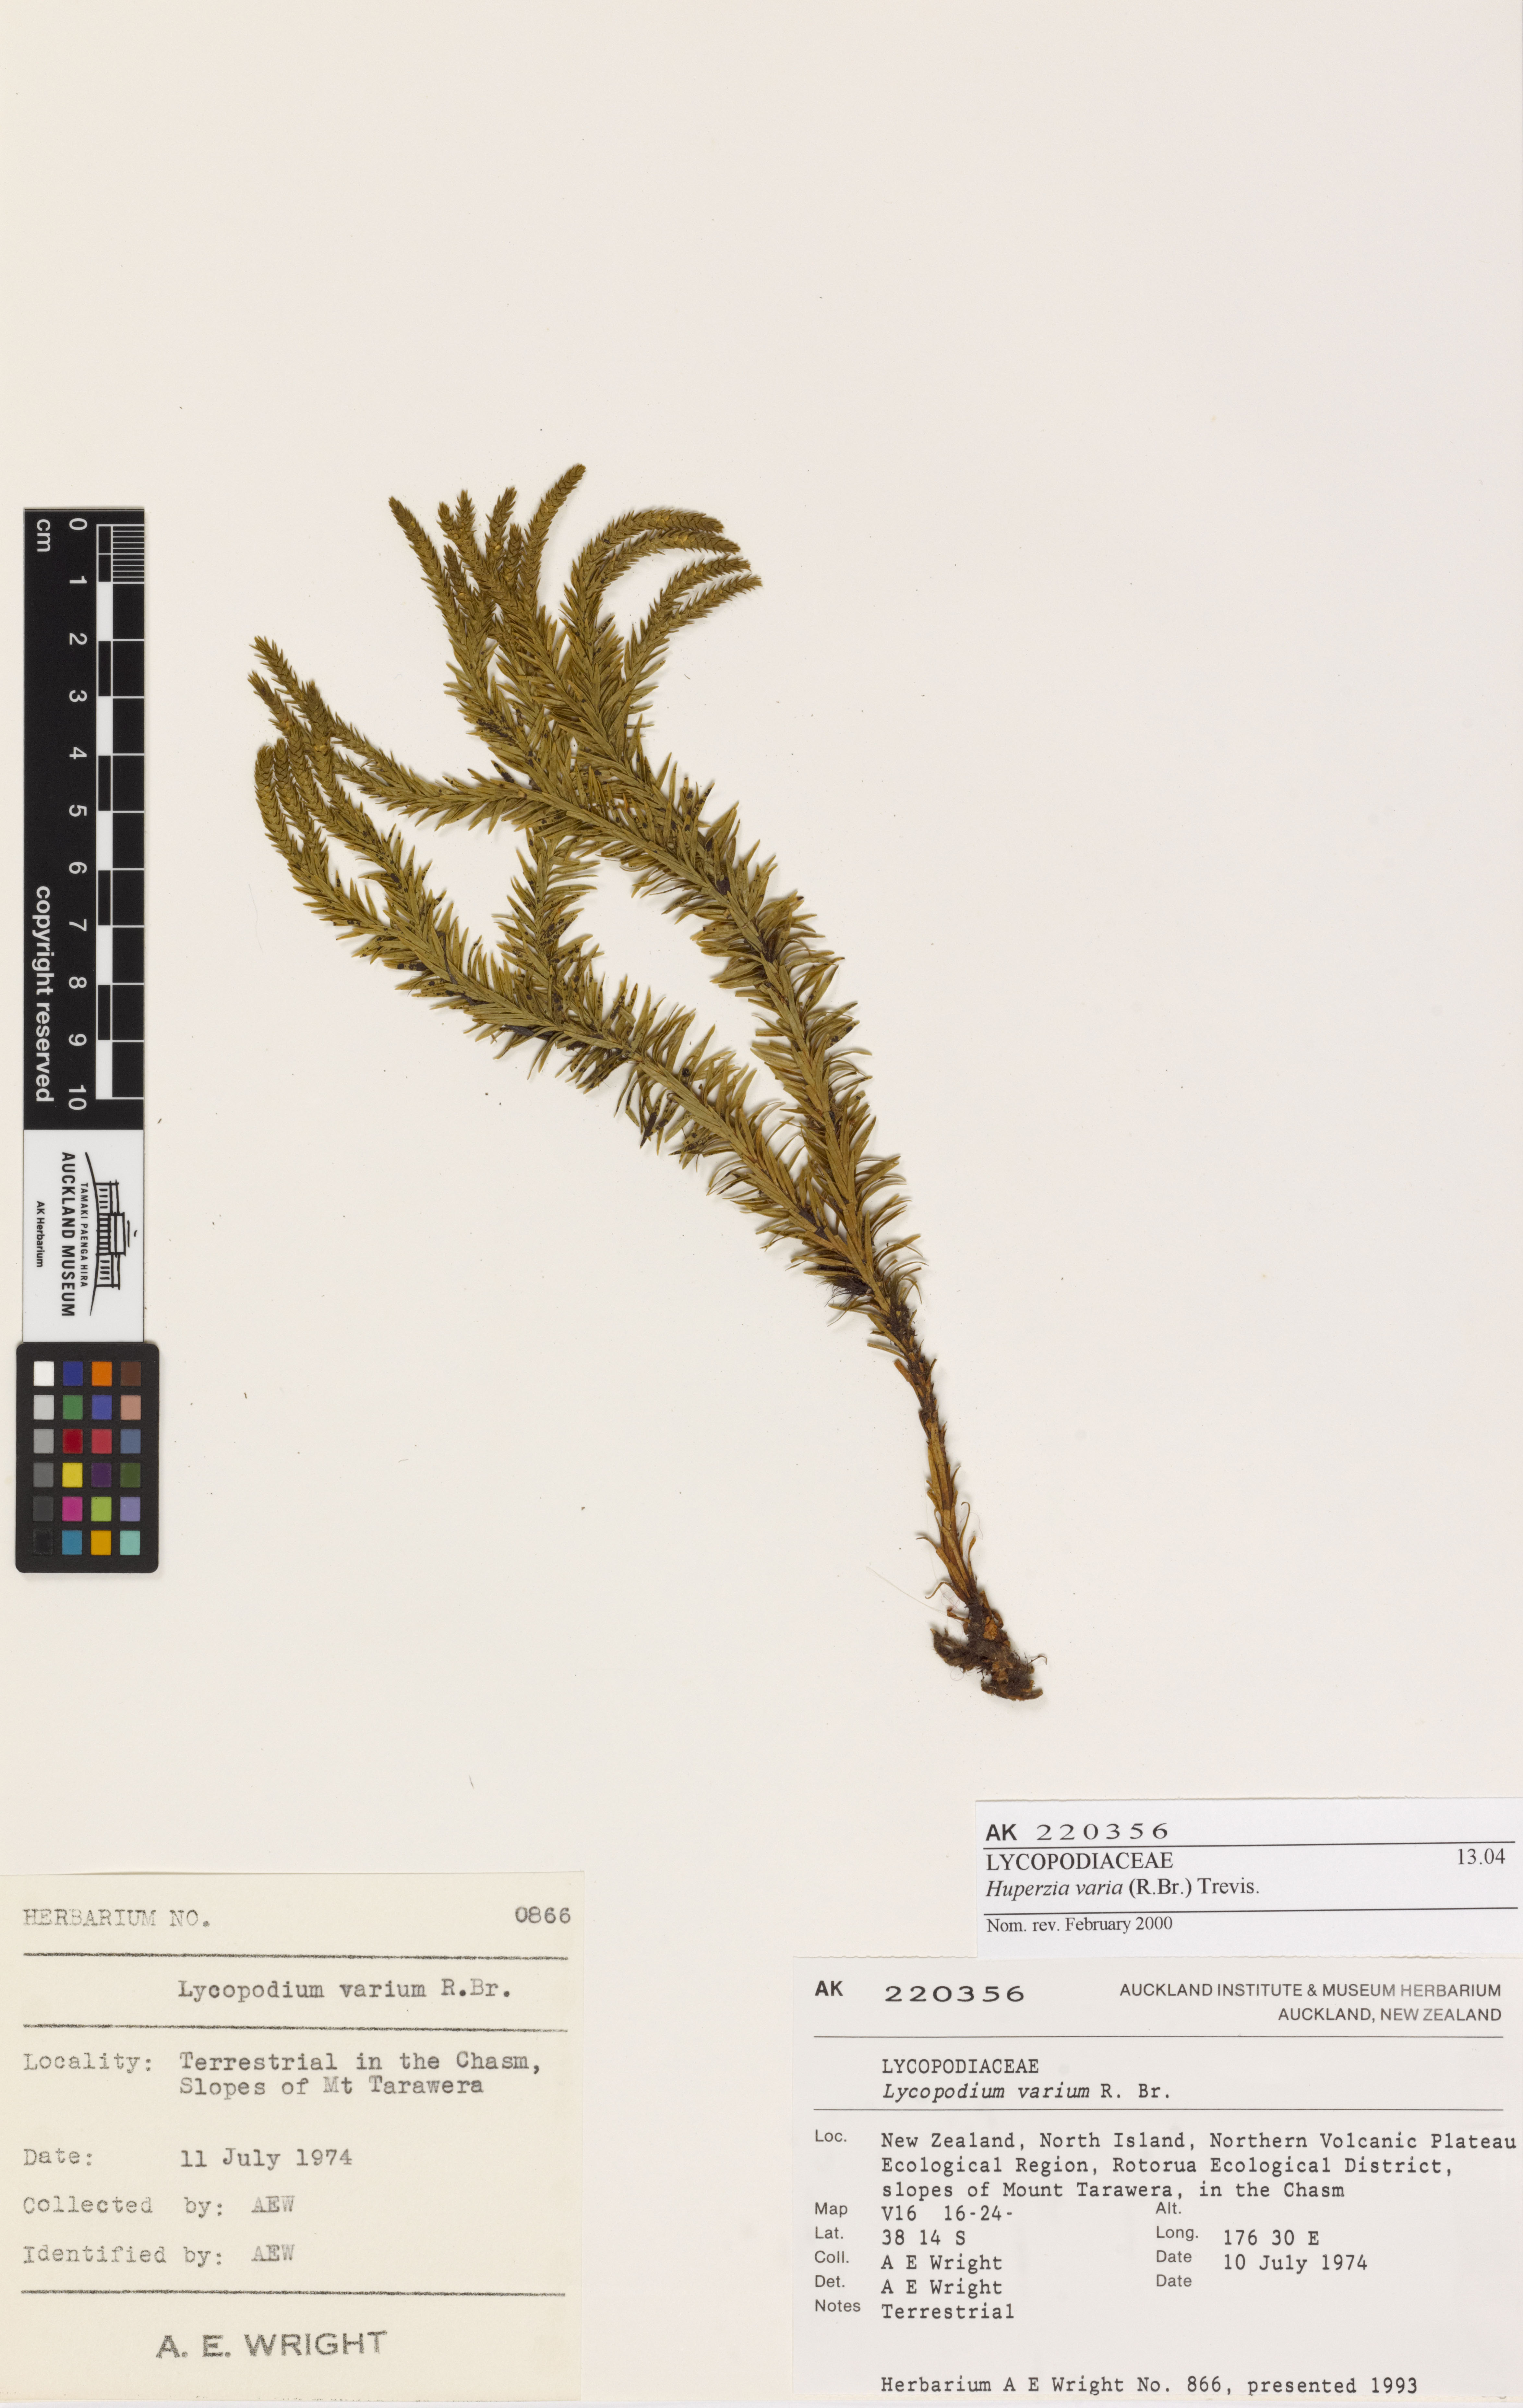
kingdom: Plantae
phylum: Tracheophyta
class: Lycopodiopsida
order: Lycopodiales
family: Lycopodiaceae
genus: Phlegmariurus
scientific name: Phlegmariurus varius
